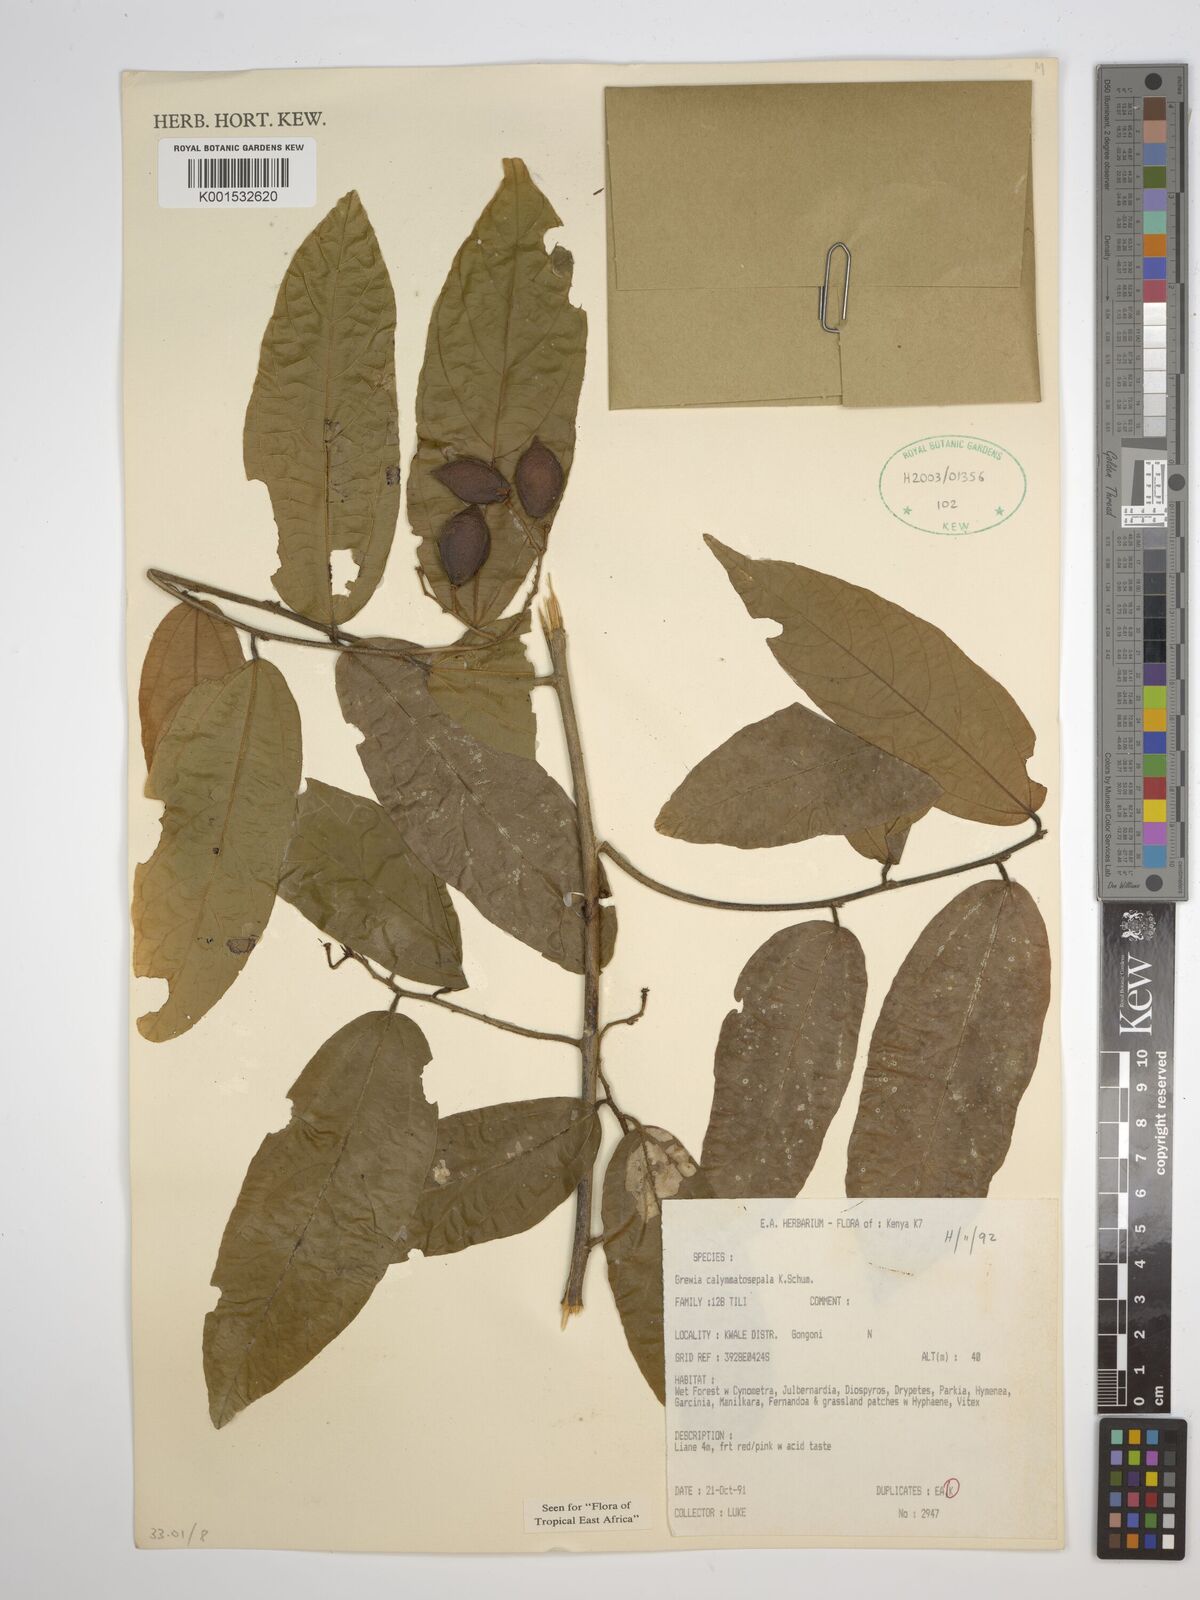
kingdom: Plantae
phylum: Tracheophyta
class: Magnoliopsida
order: Malvales
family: Malvaceae
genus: Microcos
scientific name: Microcos calymmatosepala
